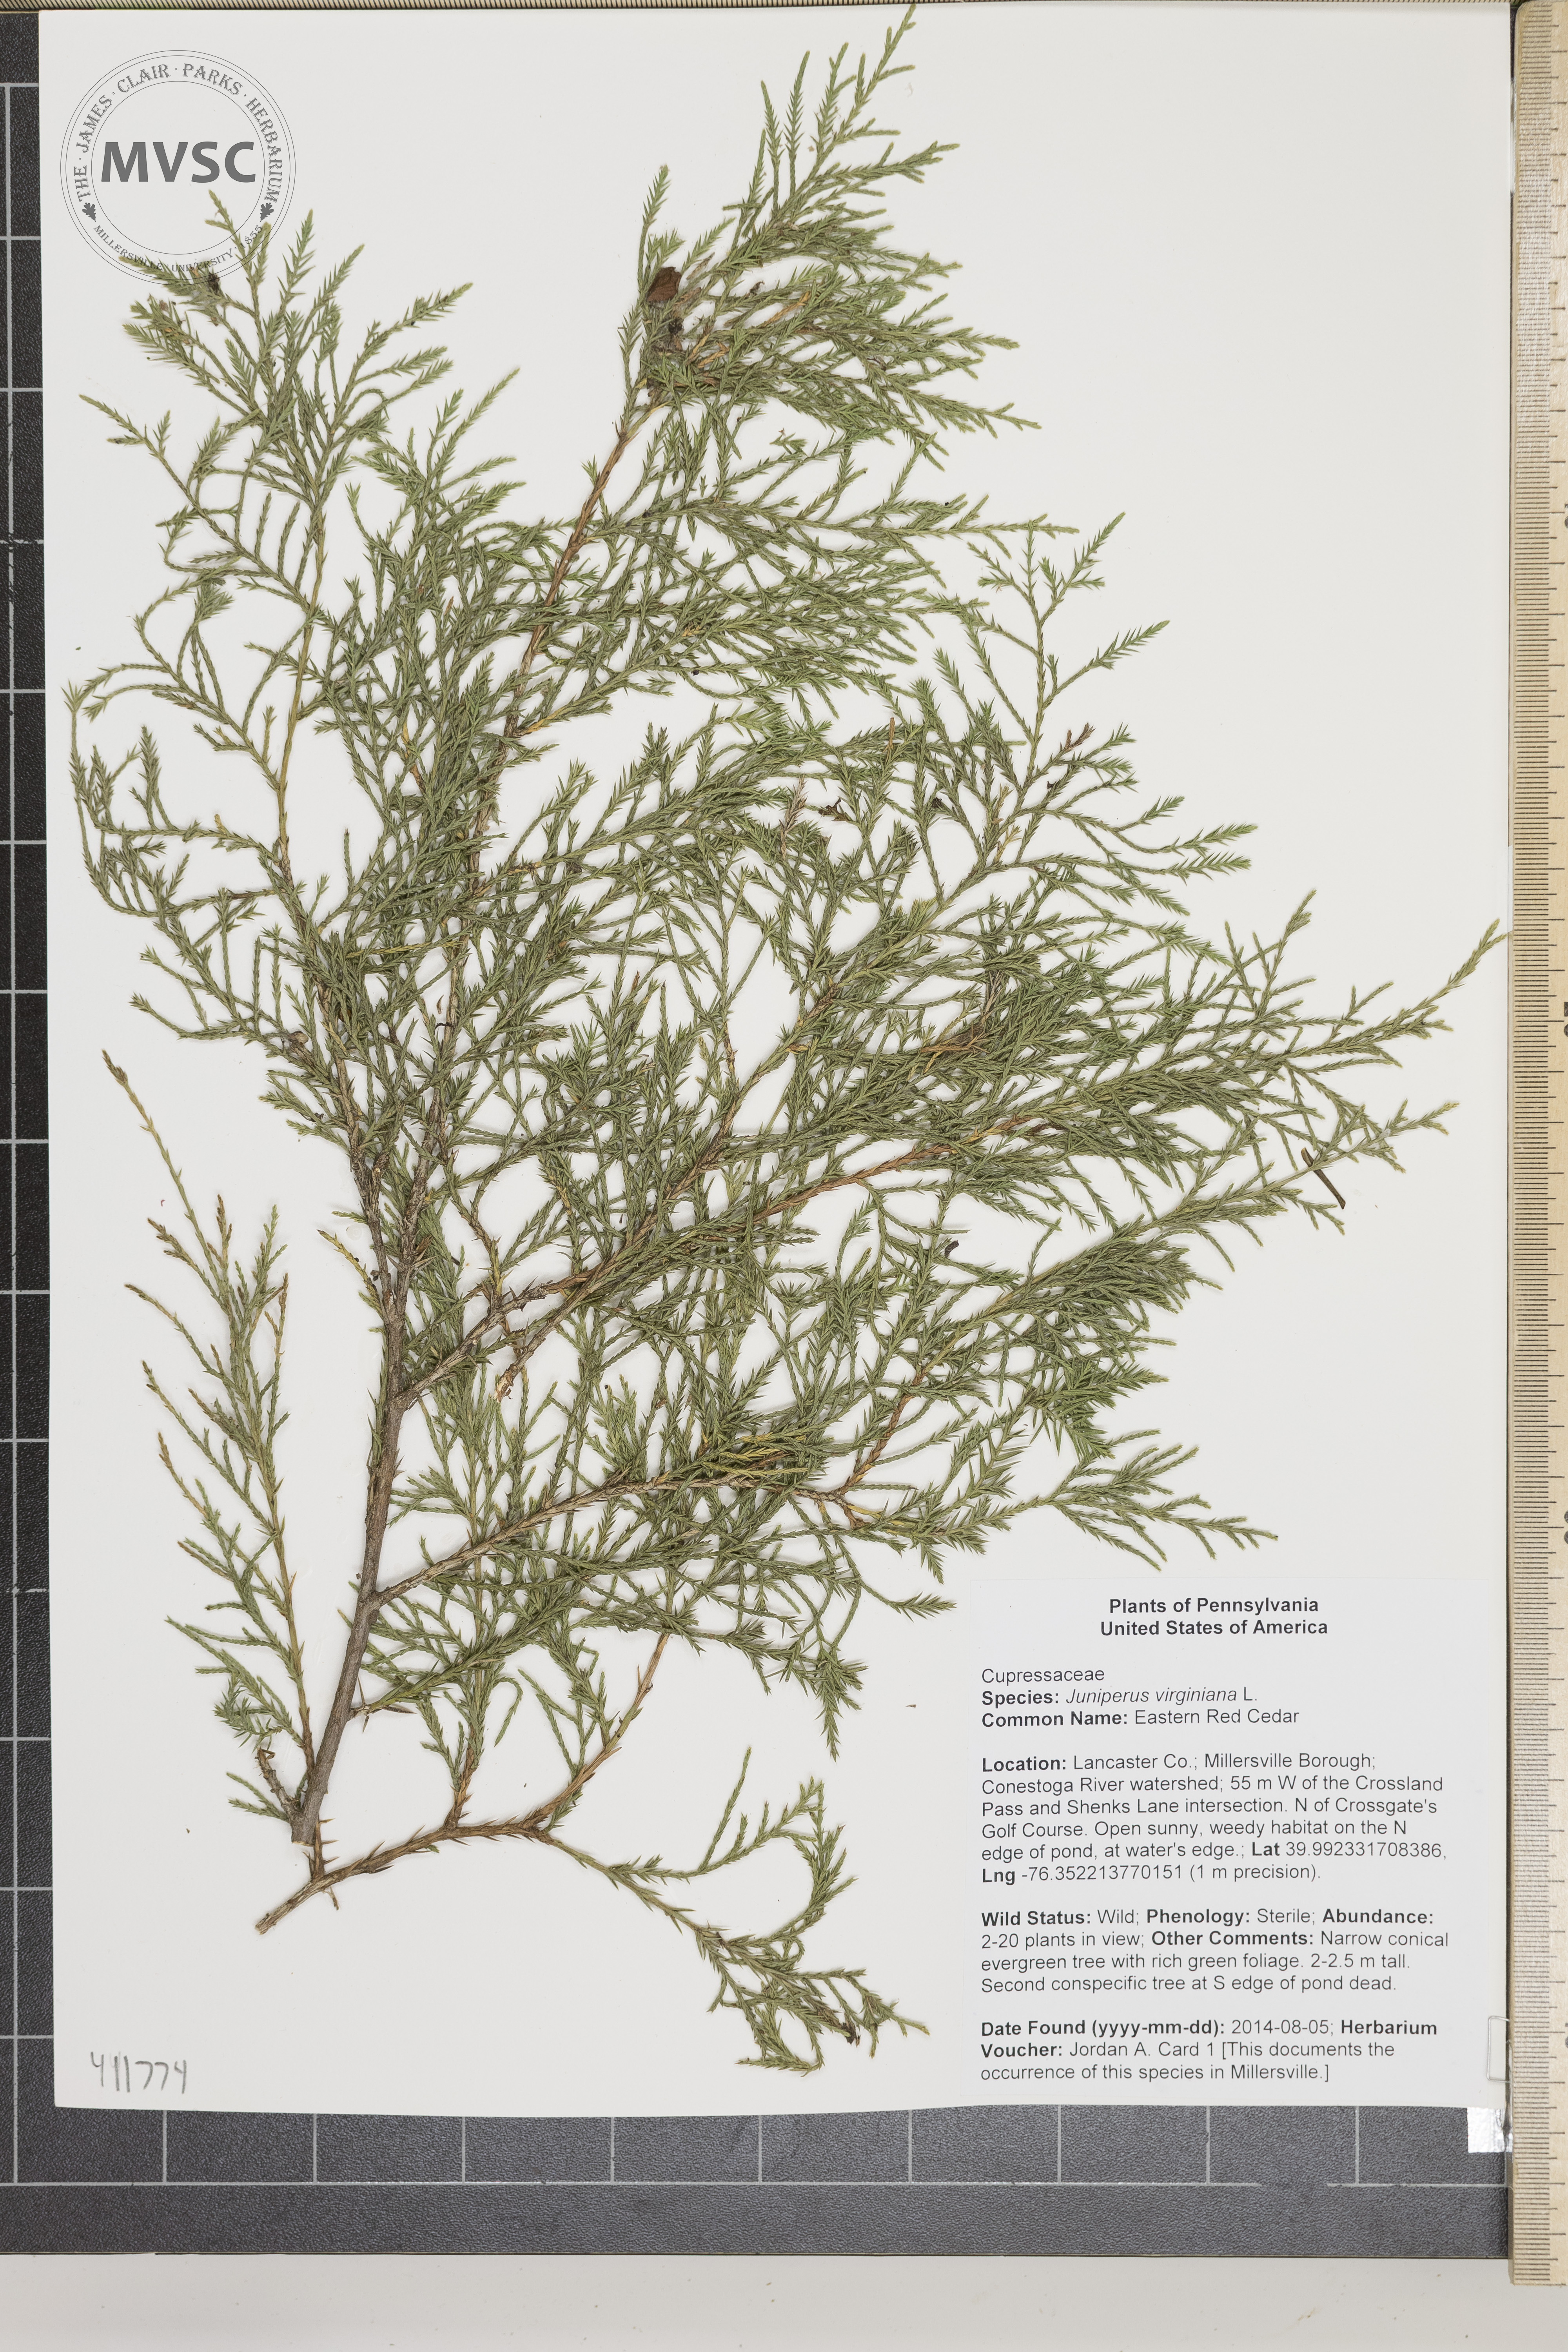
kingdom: Plantae
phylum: Tracheophyta
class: Pinopsida
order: Pinales
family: Cupressaceae
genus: Juniperus
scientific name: Juniperus virginiana
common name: Eastern Red Cedar
